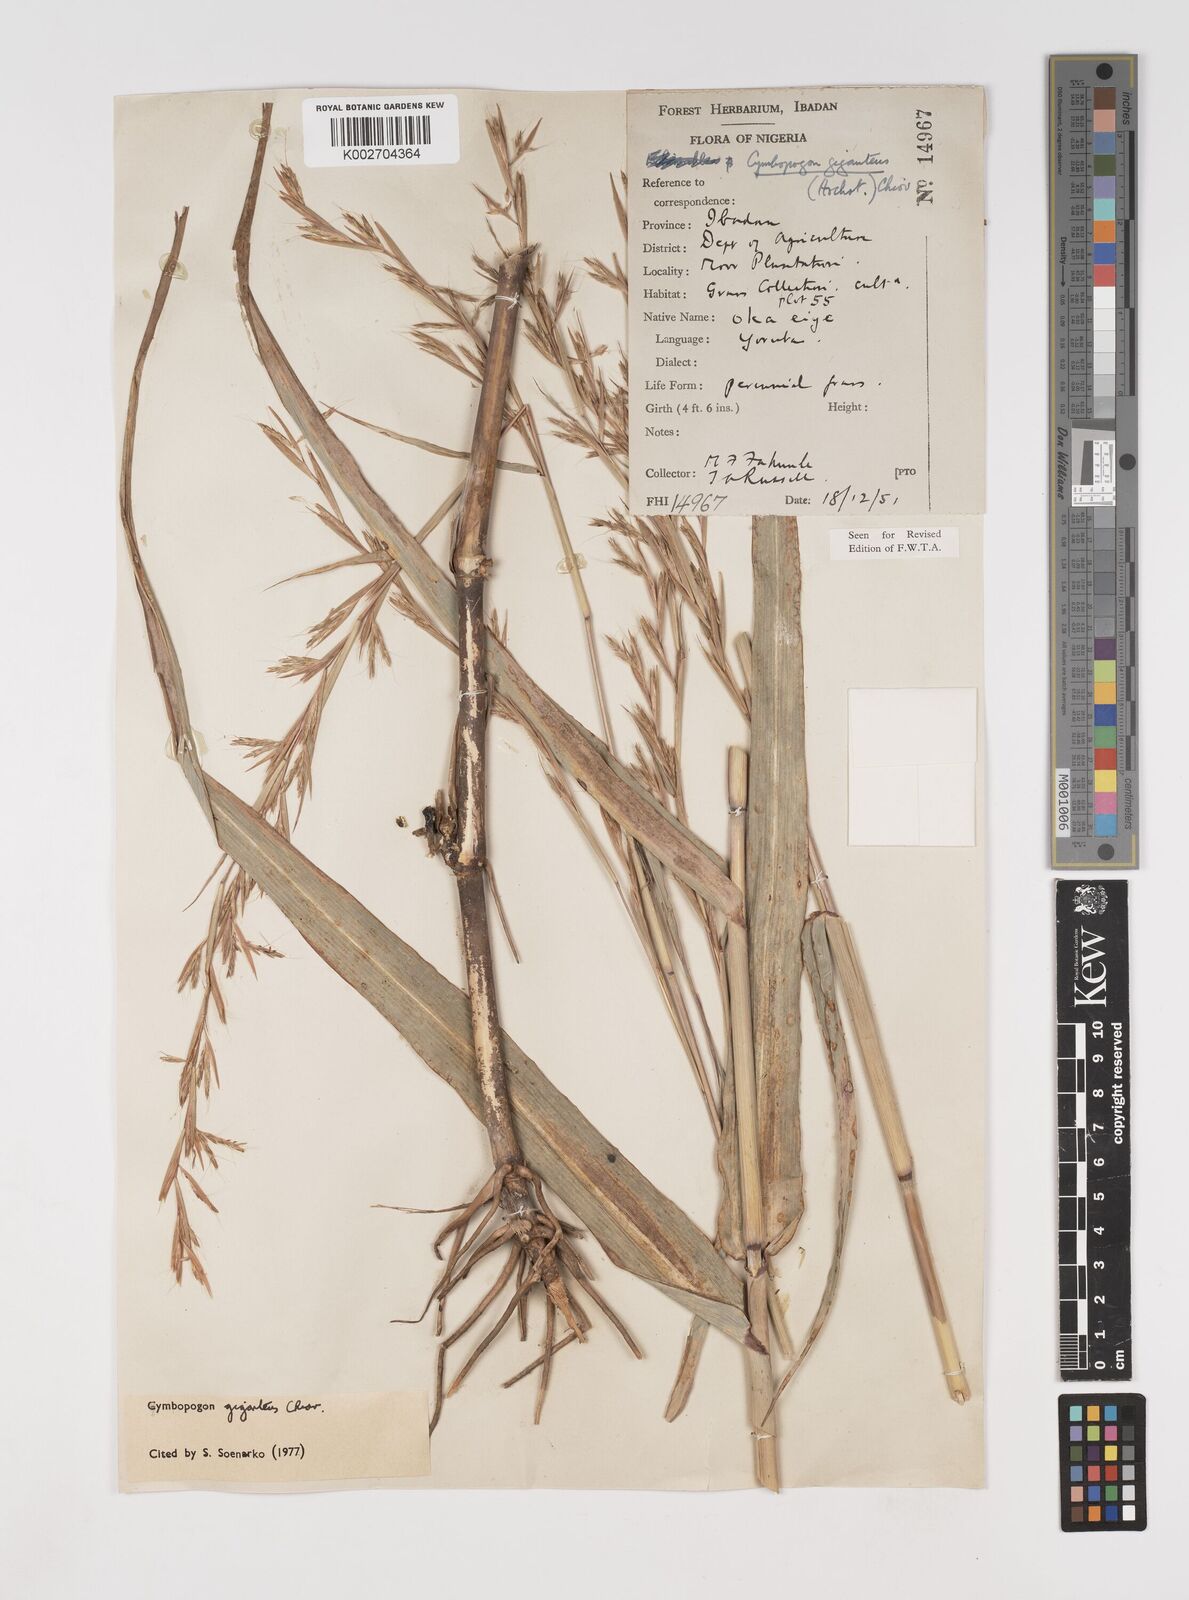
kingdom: Plantae
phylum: Tracheophyta
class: Liliopsida
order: Poales
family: Poaceae
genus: Cymbopogon
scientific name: Cymbopogon giganteus
